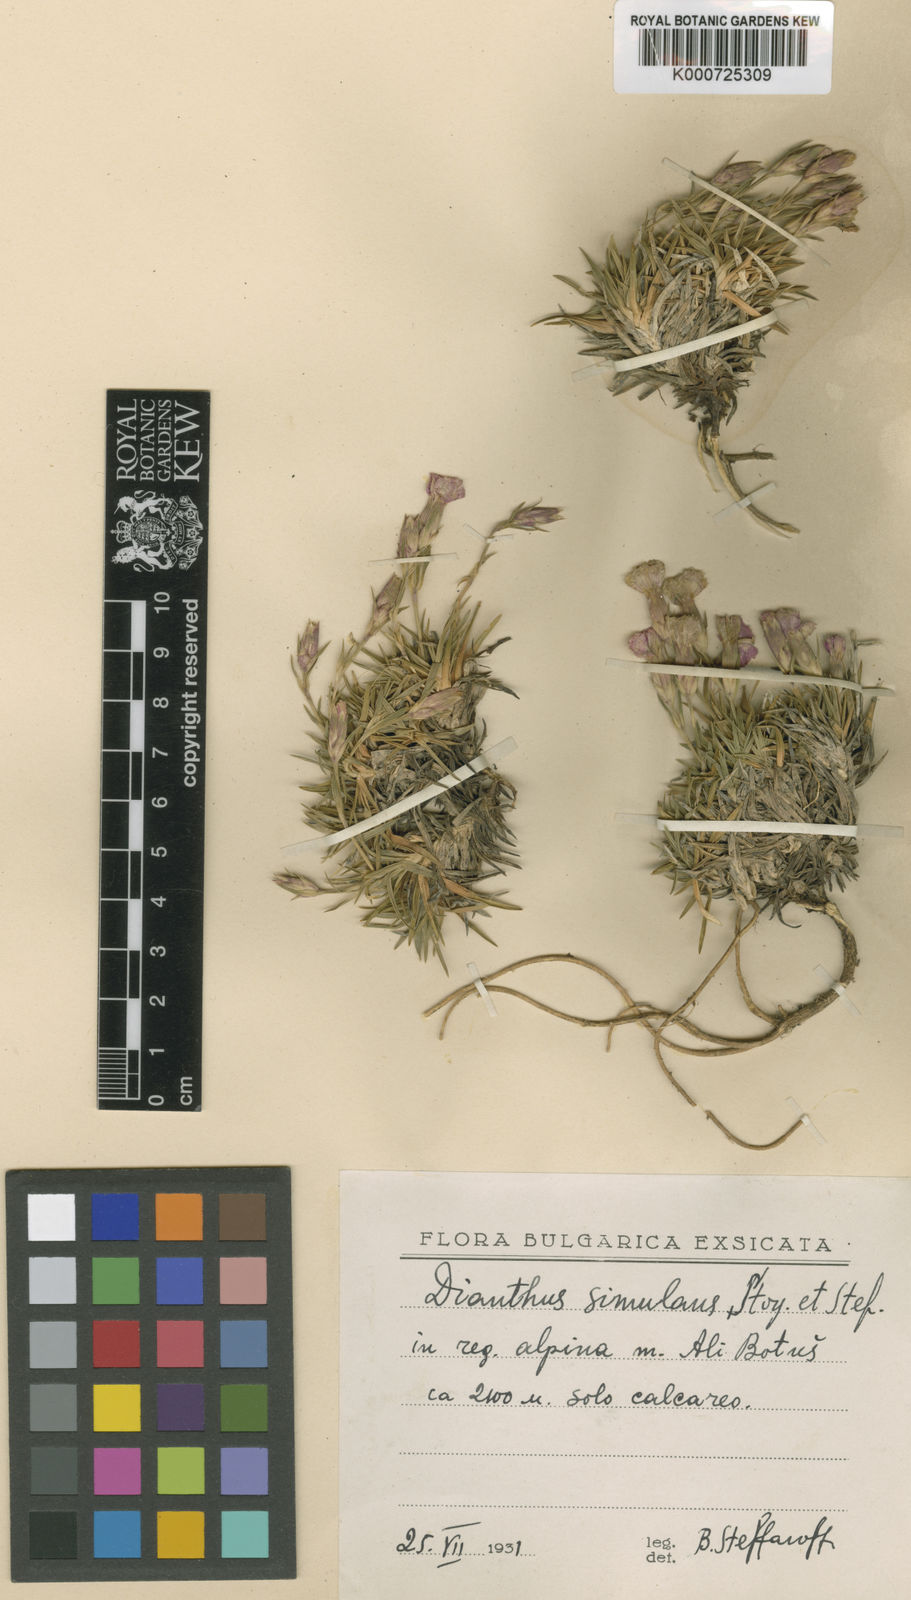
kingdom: Plantae
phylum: Tracheophyta
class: Magnoliopsida
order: Caryophyllales
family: Caryophyllaceae
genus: Dianthus
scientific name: Dianthus simulans
